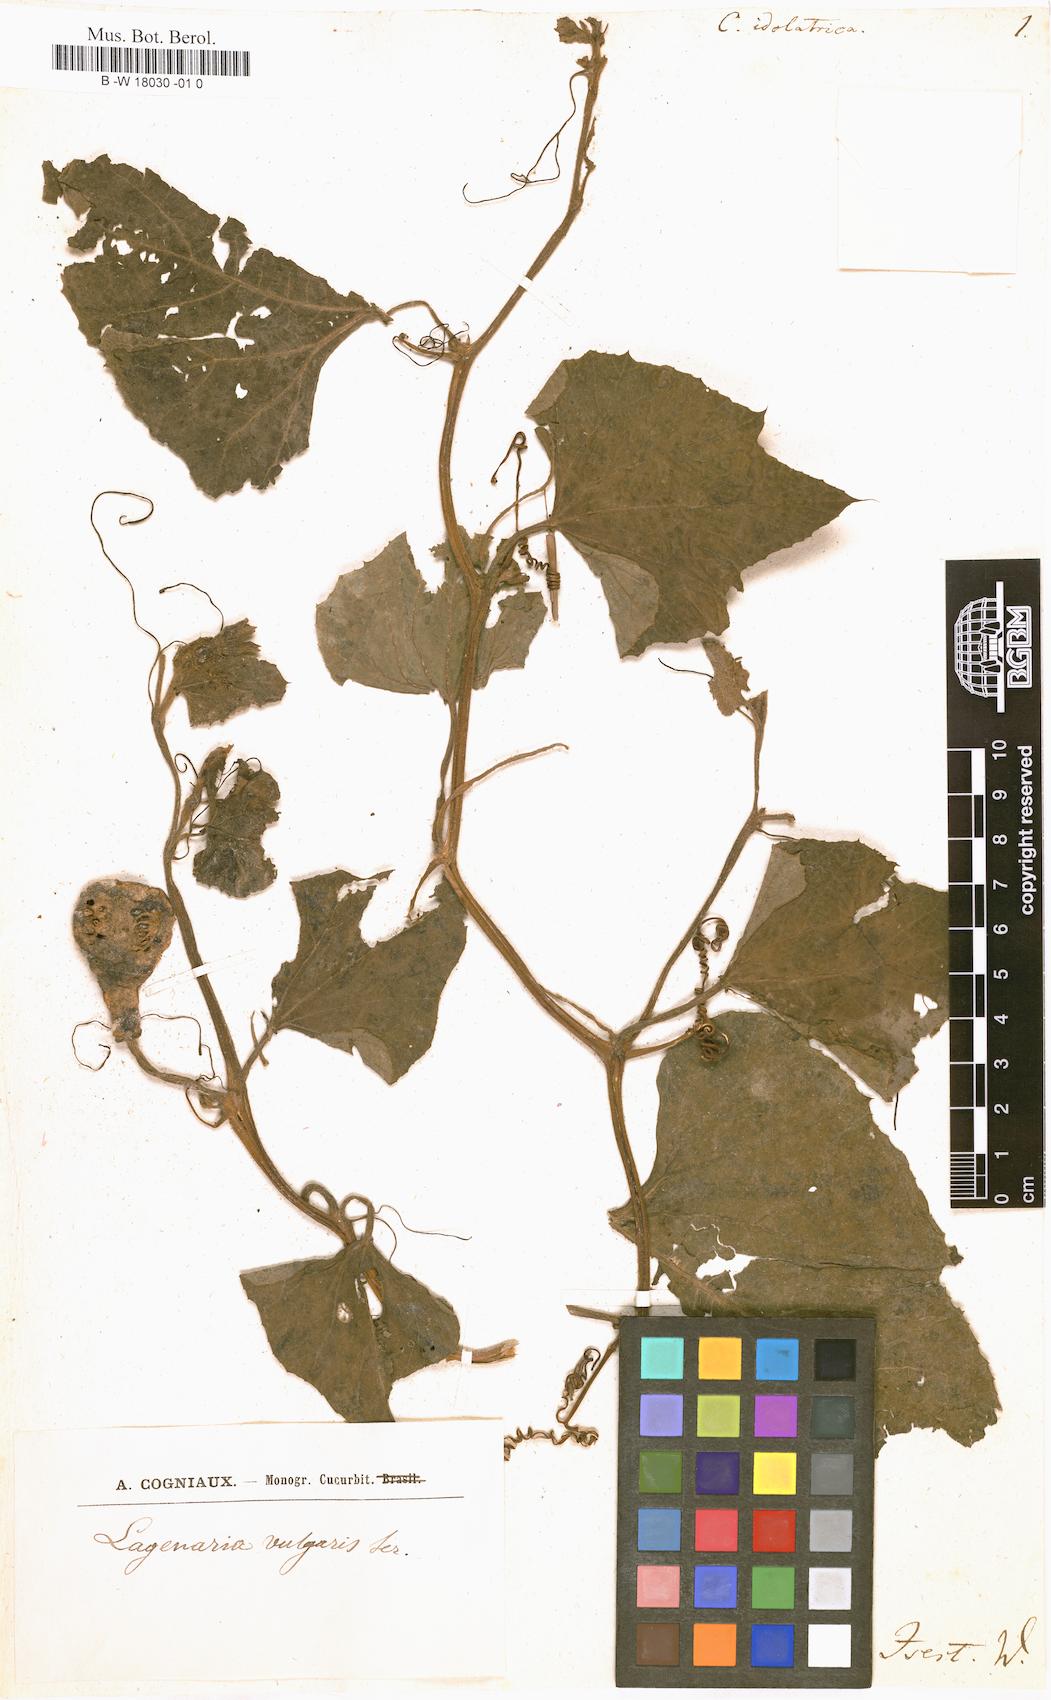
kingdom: Plantae
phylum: Tracheophyta
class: Magnoliopsida
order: Cucurbitales
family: Cucurbitaceae
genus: Lagenaria
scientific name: Lagenaria siceraria
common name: Bottle gourd
